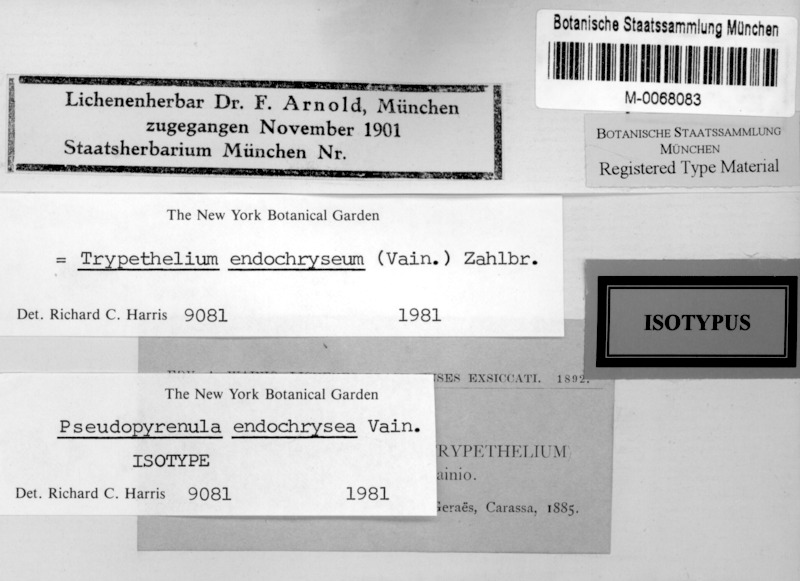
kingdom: Fungi
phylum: Ascomycota
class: Dothideomycetes
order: Trypetheliales
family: Trypetheliaceae
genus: Astrothelium
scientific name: Astrothelium endochryseum
